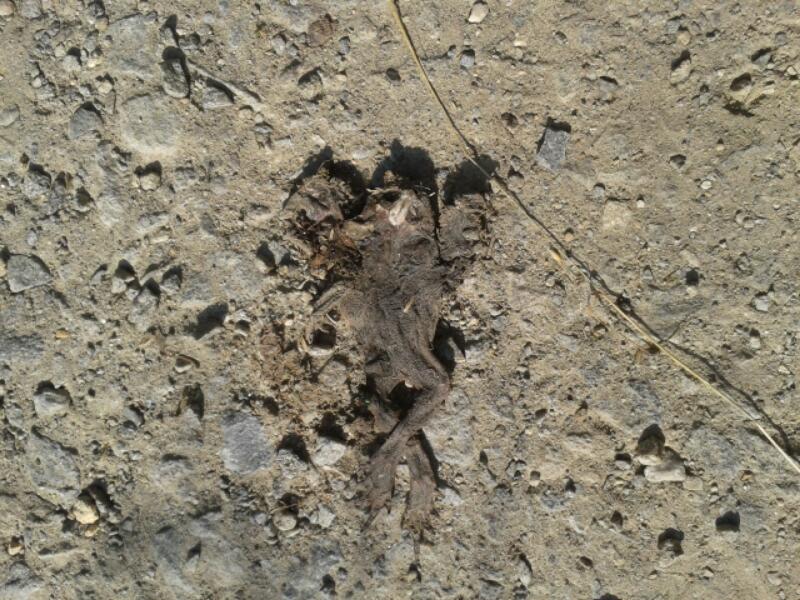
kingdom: Animalia
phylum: Chordata
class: Amphibia
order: Anura
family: Bufonidae
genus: Bufo
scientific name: Bufo bufo
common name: Common toad
